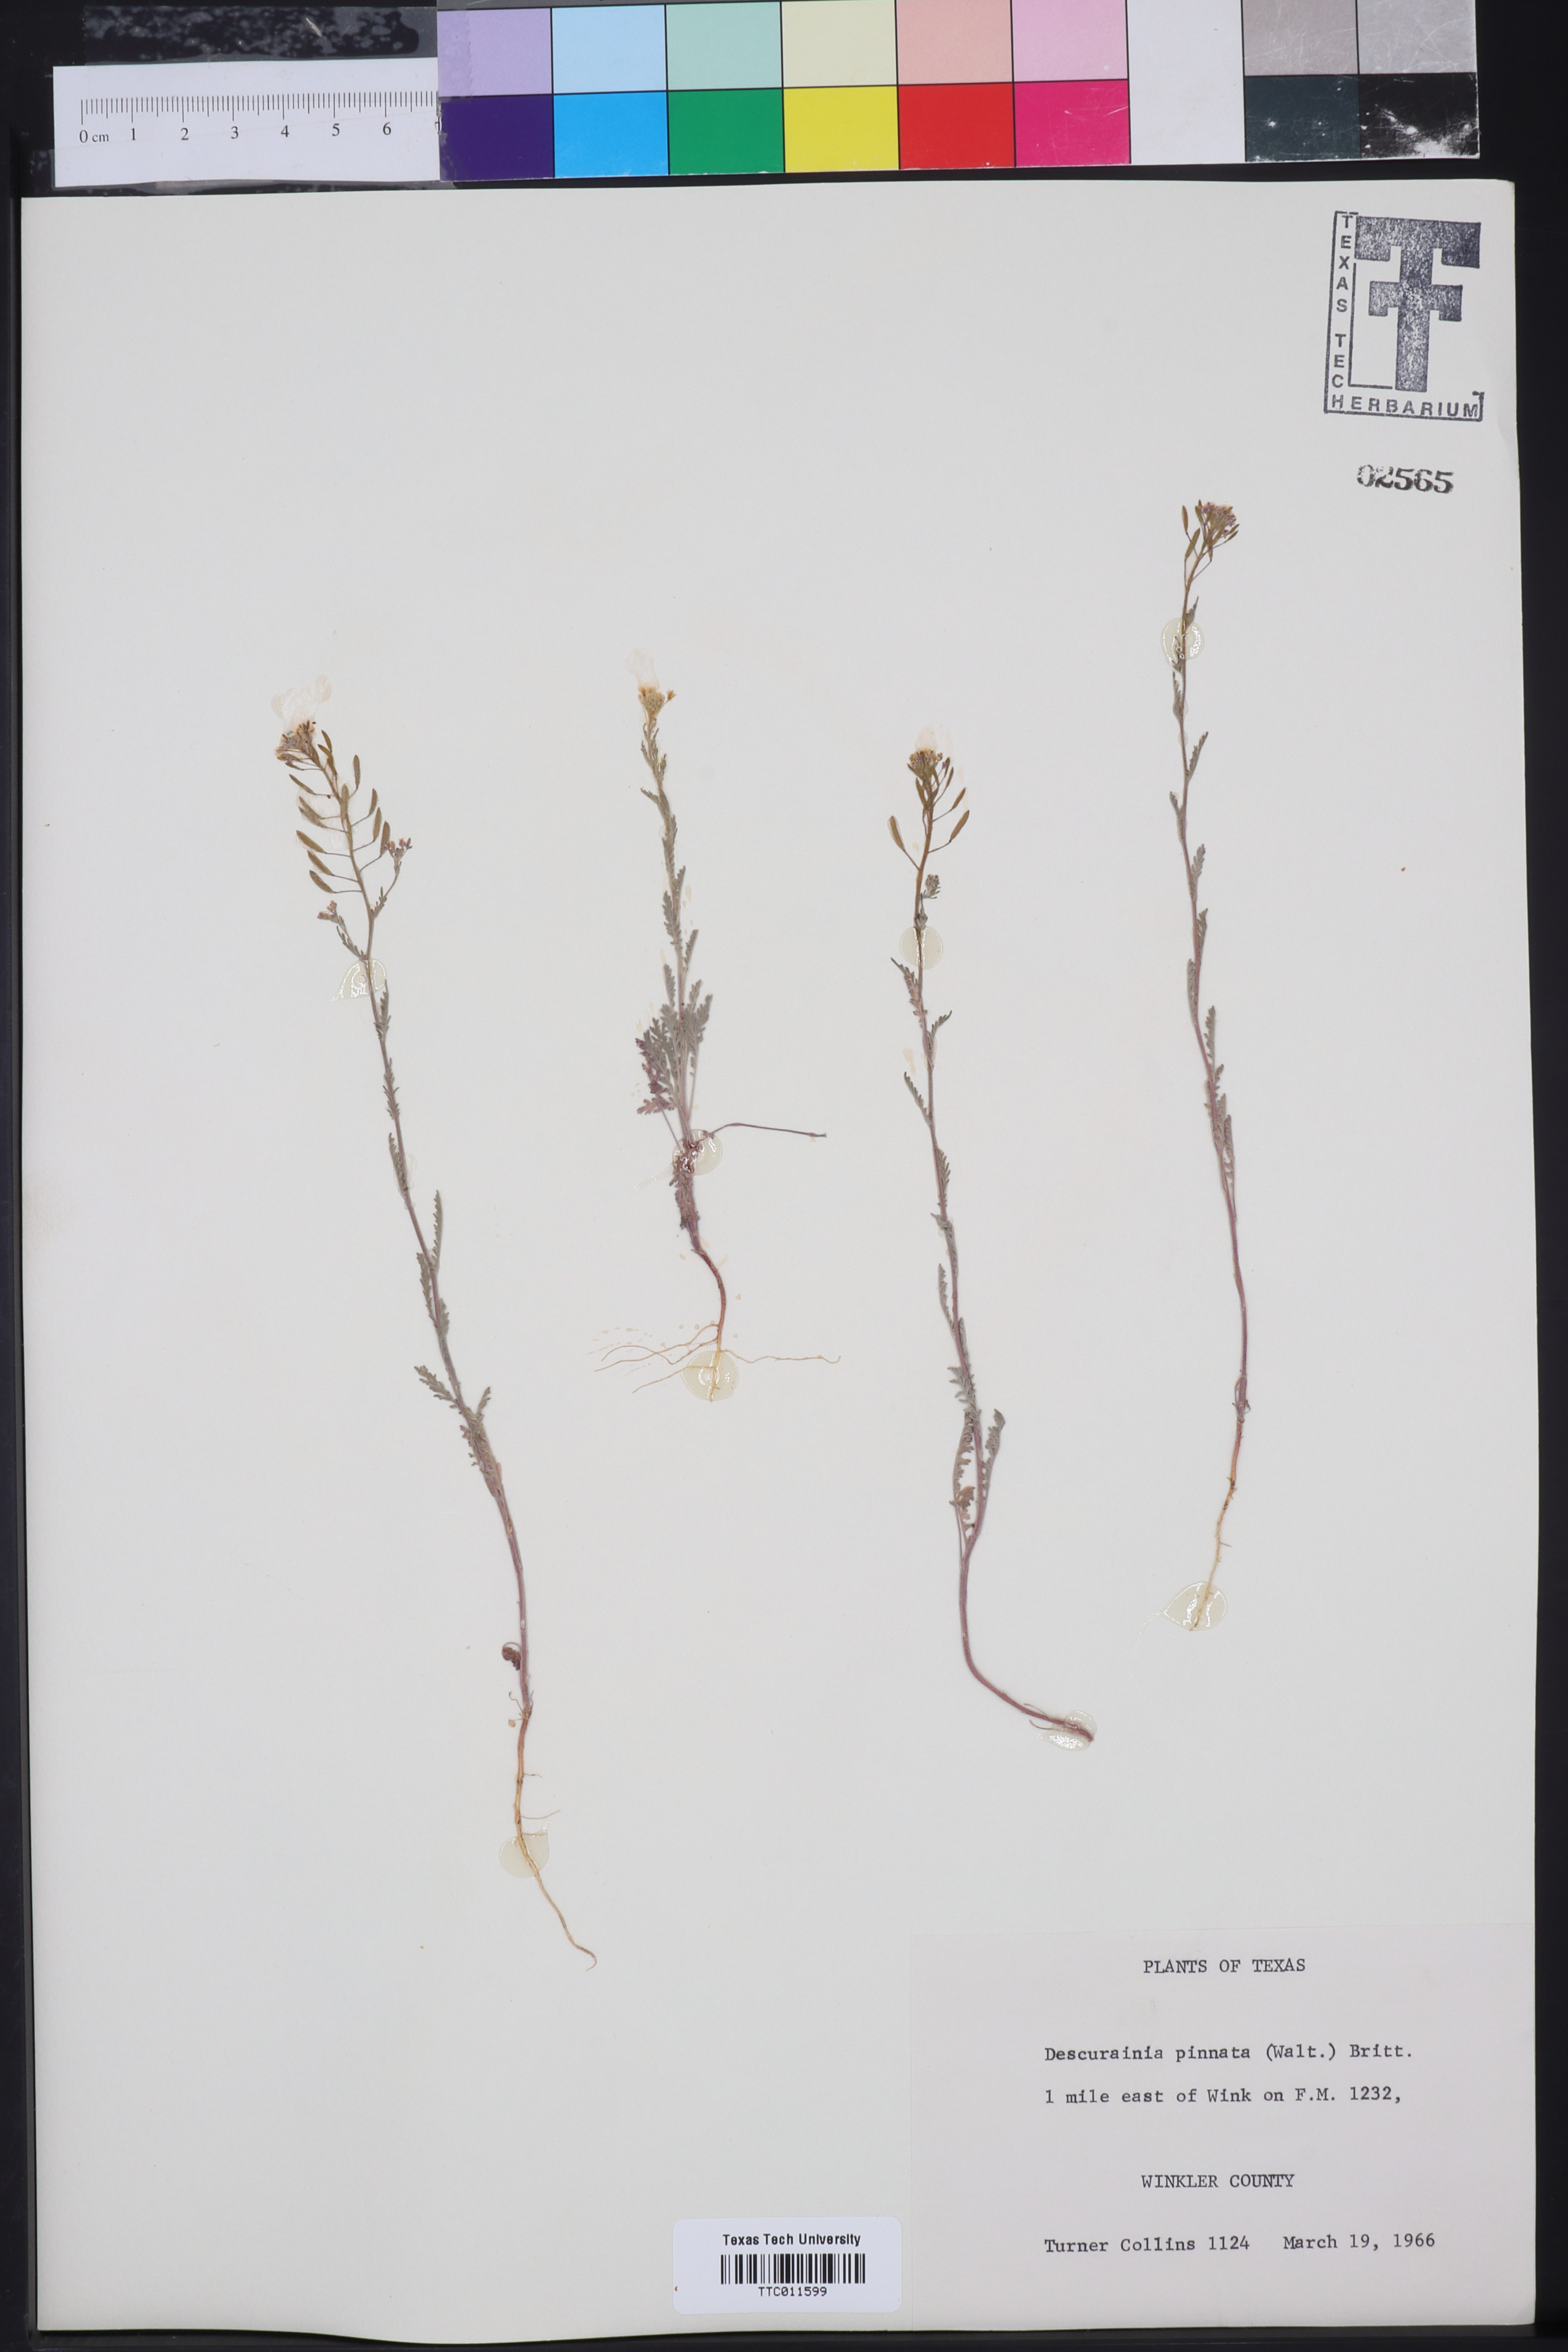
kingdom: Plantae
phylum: Tracheophyta
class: Magnoliopsida
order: Brassicales
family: Brassicaceae
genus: Descurainia
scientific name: Descurainia pinnata
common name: Western tansy mustard
